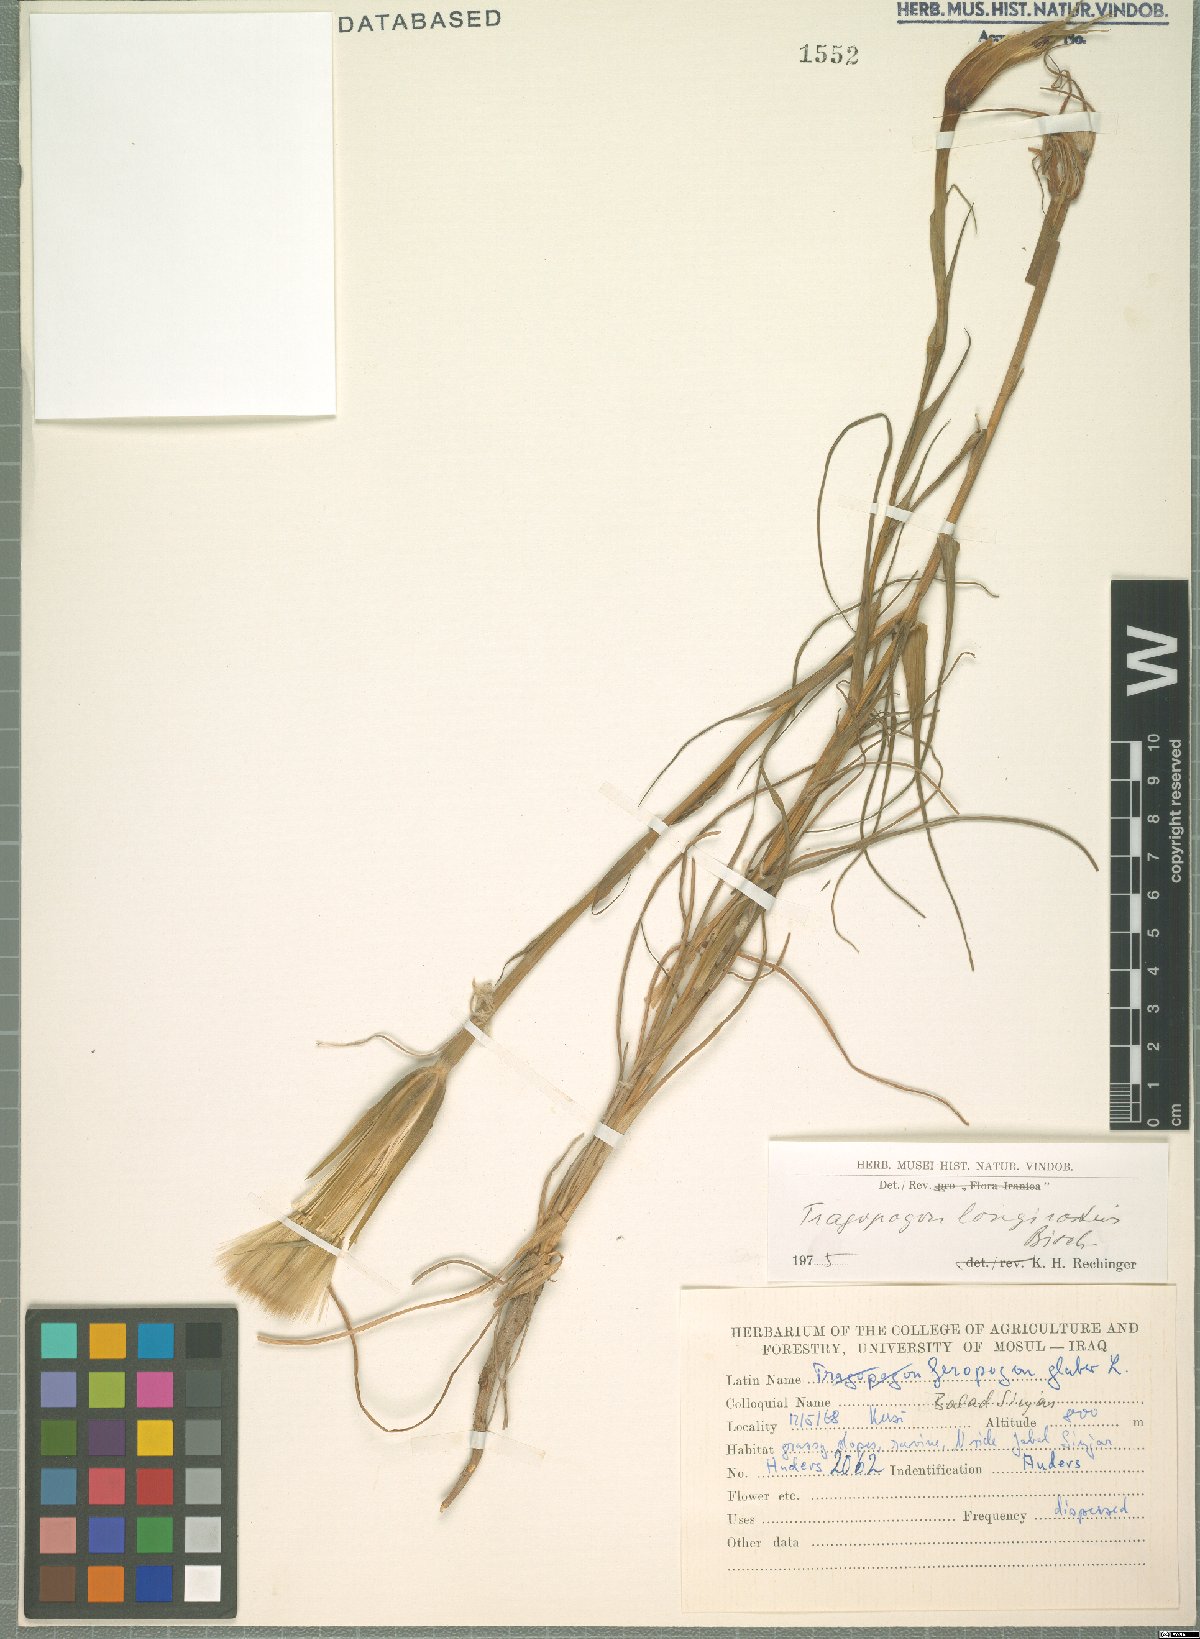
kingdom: Plantae
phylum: Tracheophyta
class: Magnoliopsida
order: Asterales
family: Asteraceae
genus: Tragopogon
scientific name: Tragopogon coelesyriacus
